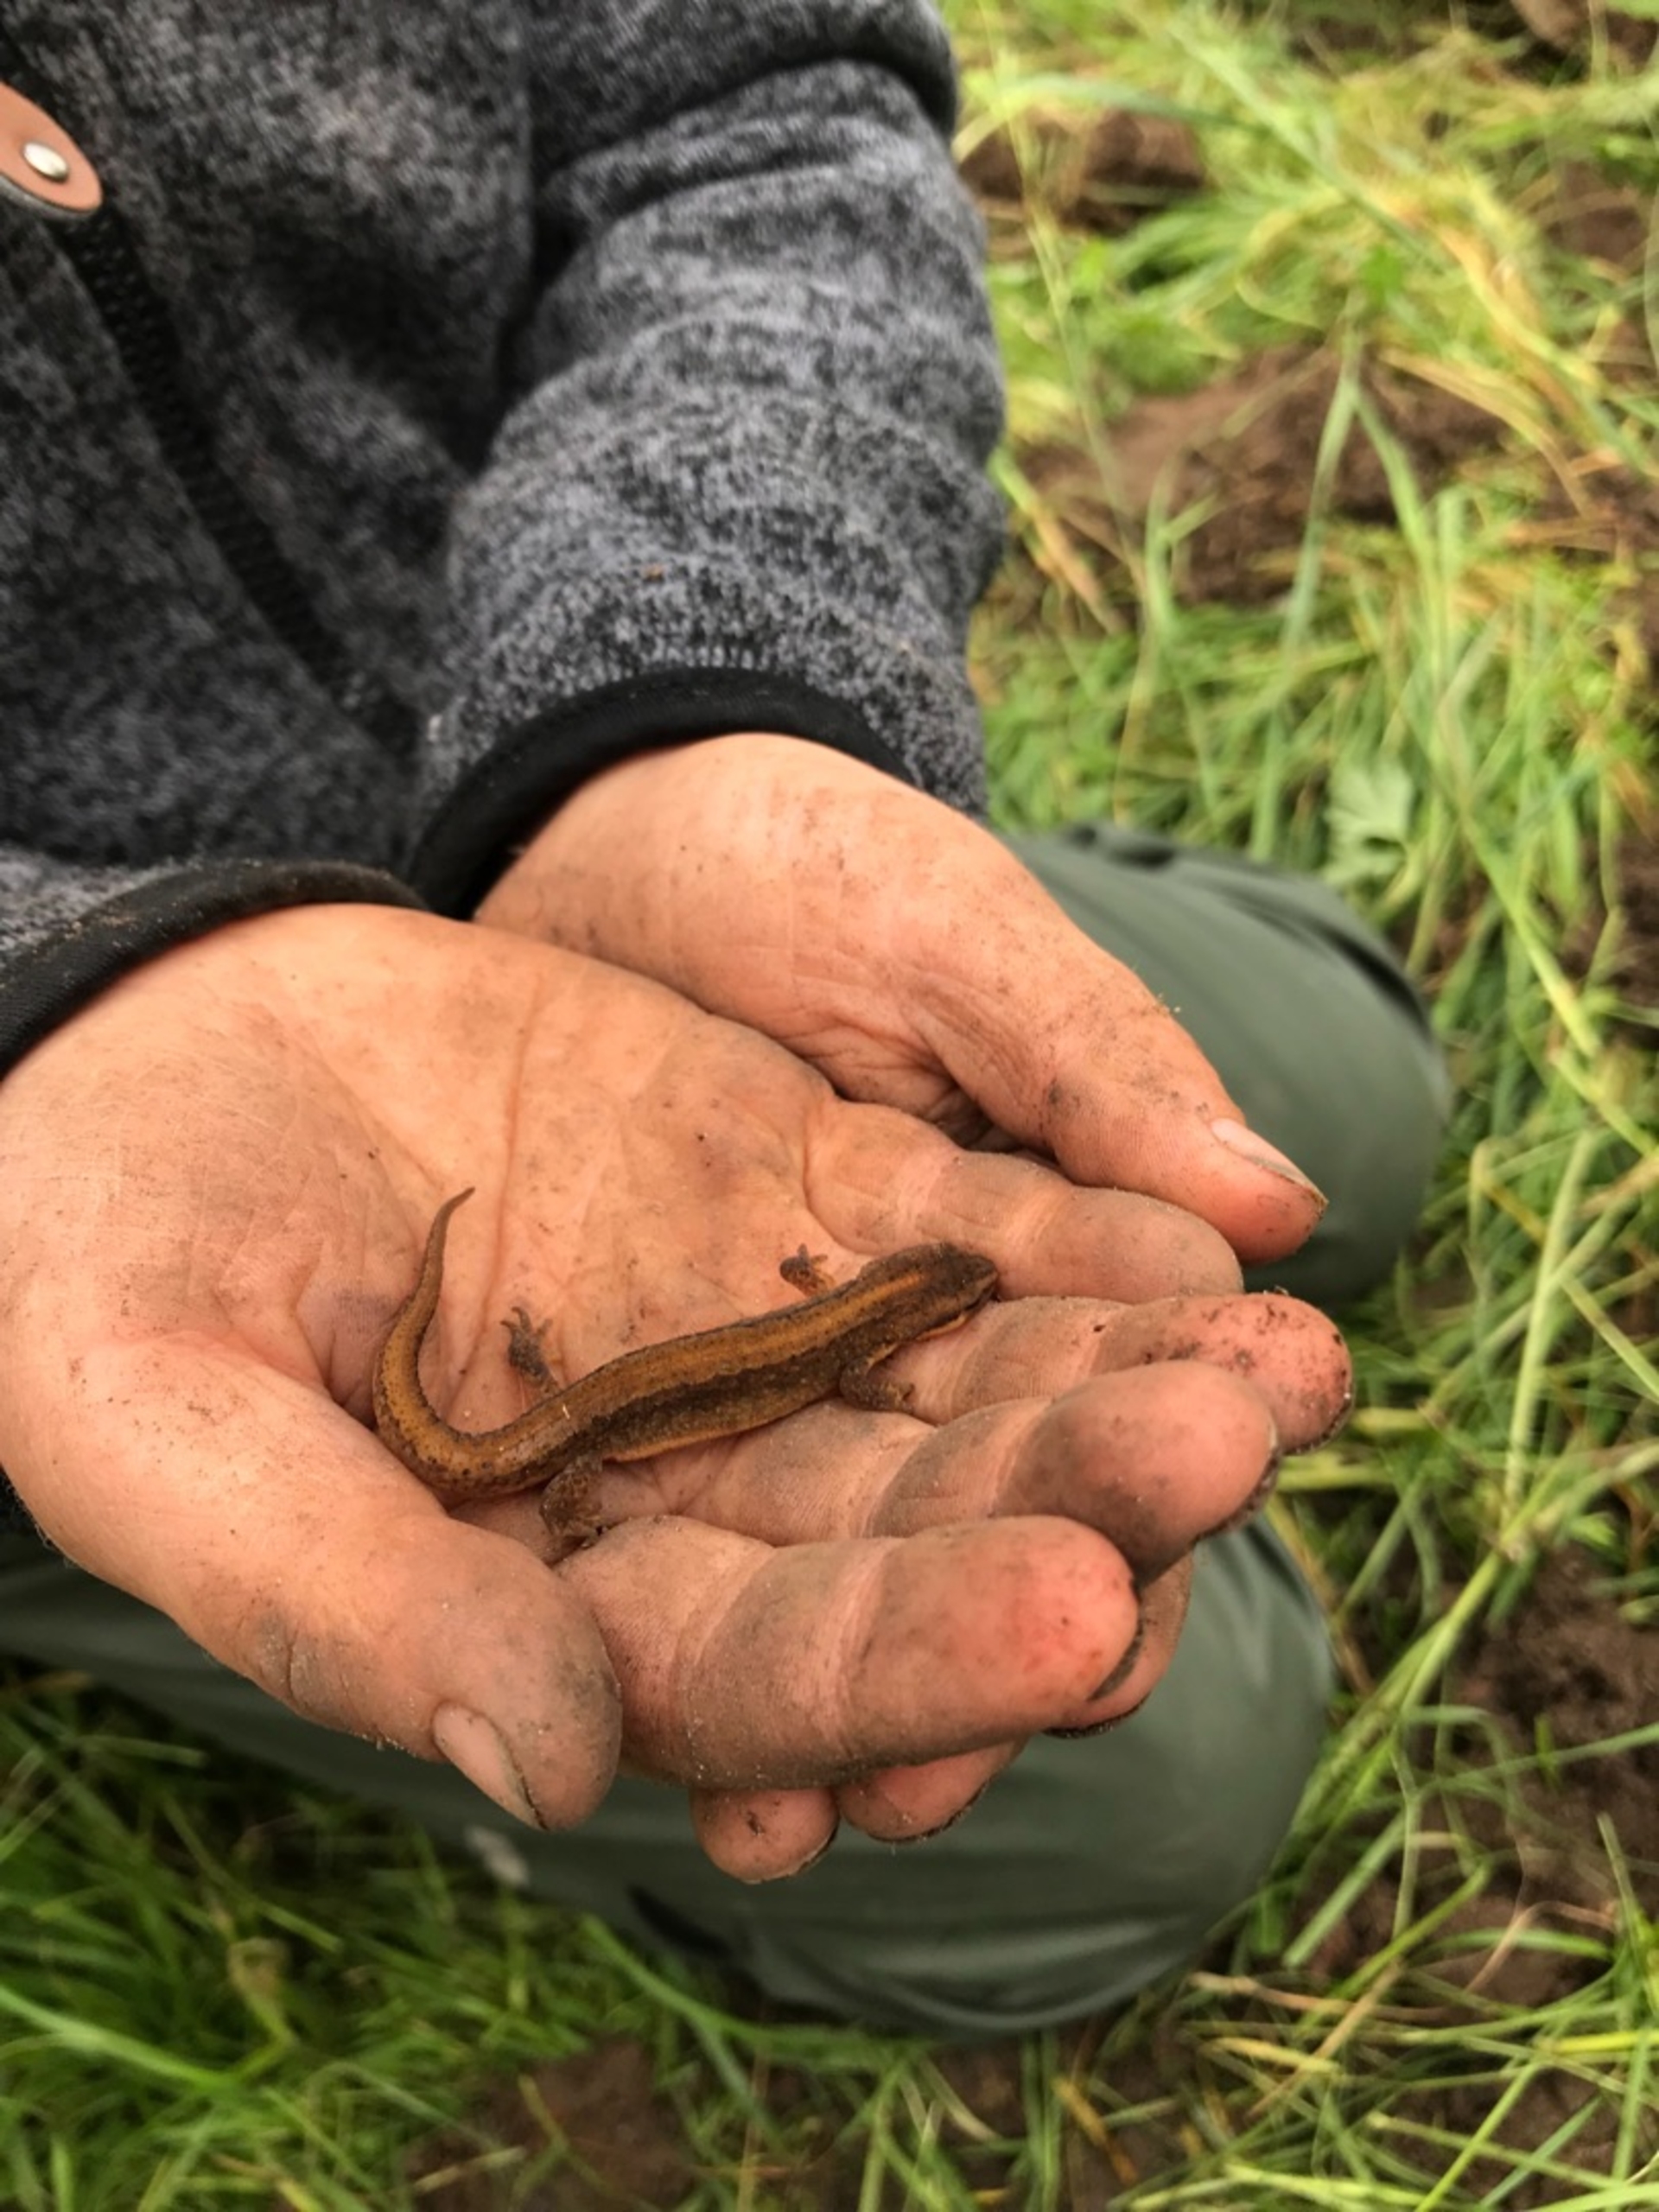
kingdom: Animalia
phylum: Chordata
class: Amphibia
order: Caudata
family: Salamandridae
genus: Lissotriton
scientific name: Lissotriton vulgaris
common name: Lille vandsalamander
